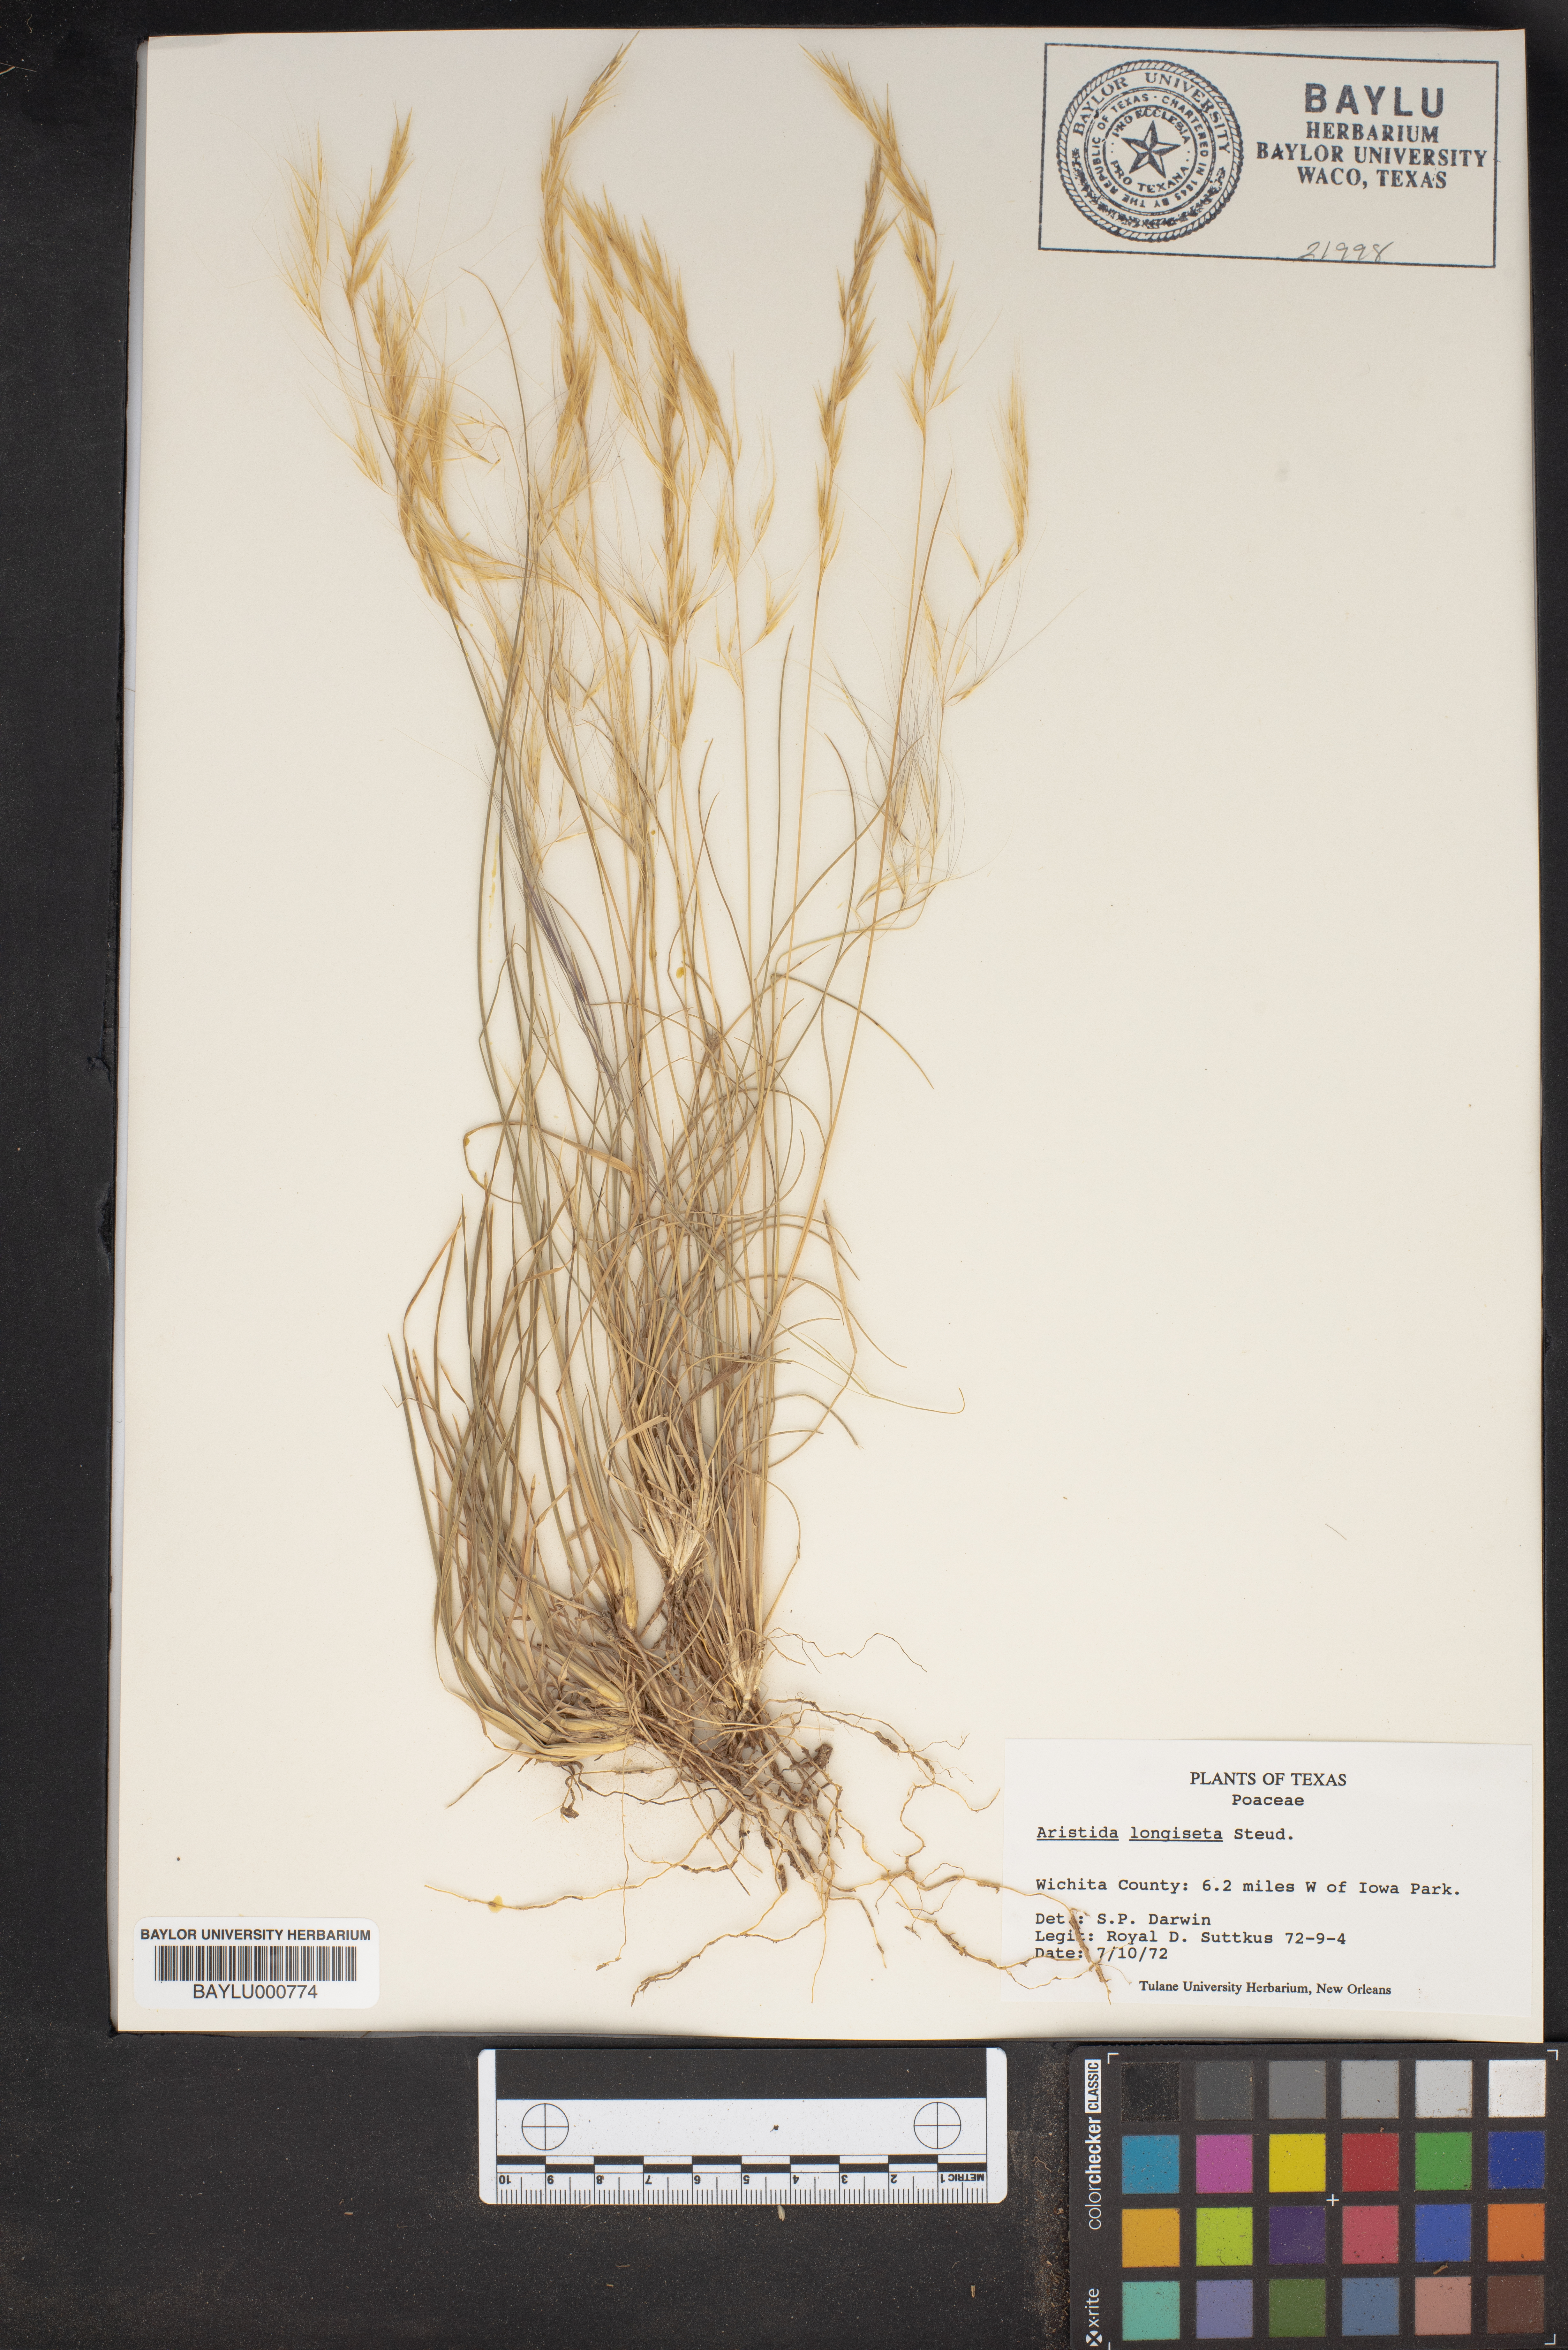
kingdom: Plantae
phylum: Tracheophyta
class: Liliopsida
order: Poales
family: Poaceae
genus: Aristida
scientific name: Aristida longiseta
